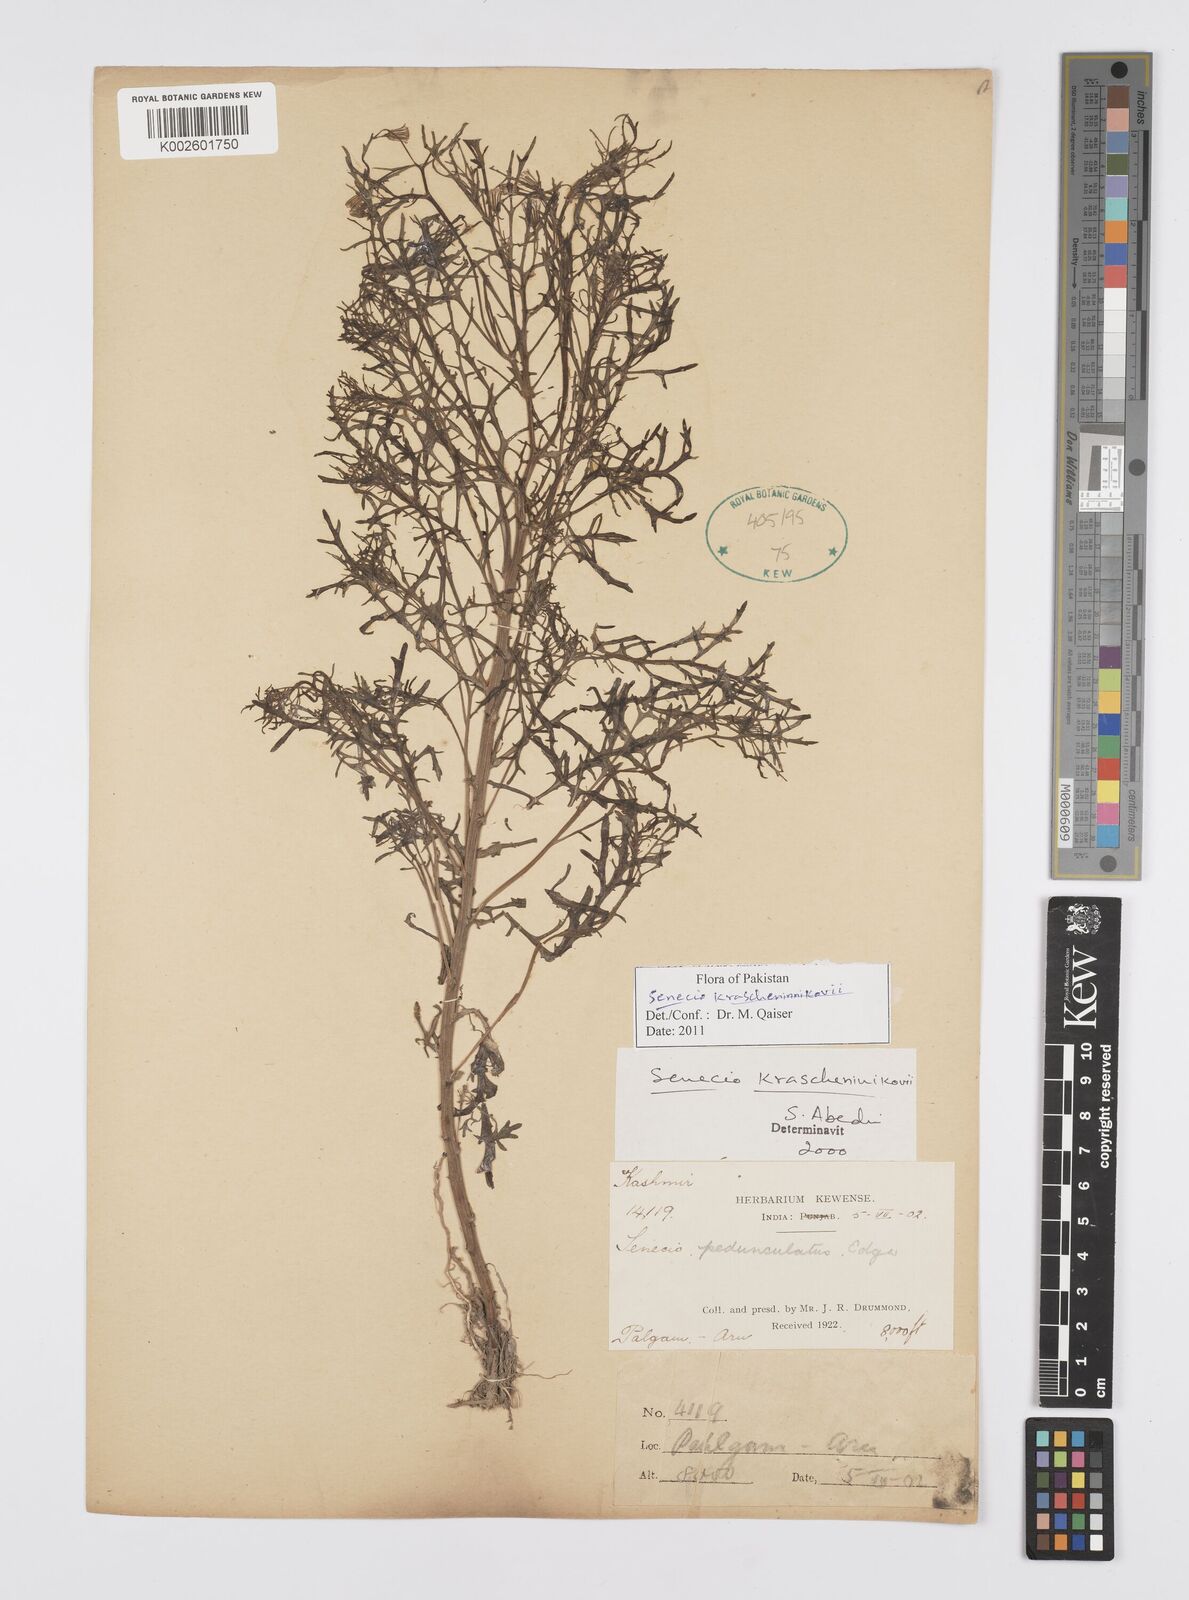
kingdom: Plantae
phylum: Tracheophyta
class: Magnoliopsida
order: Asterales
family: Asteraceae
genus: Senecio
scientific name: Senecio krascheninnikovii
